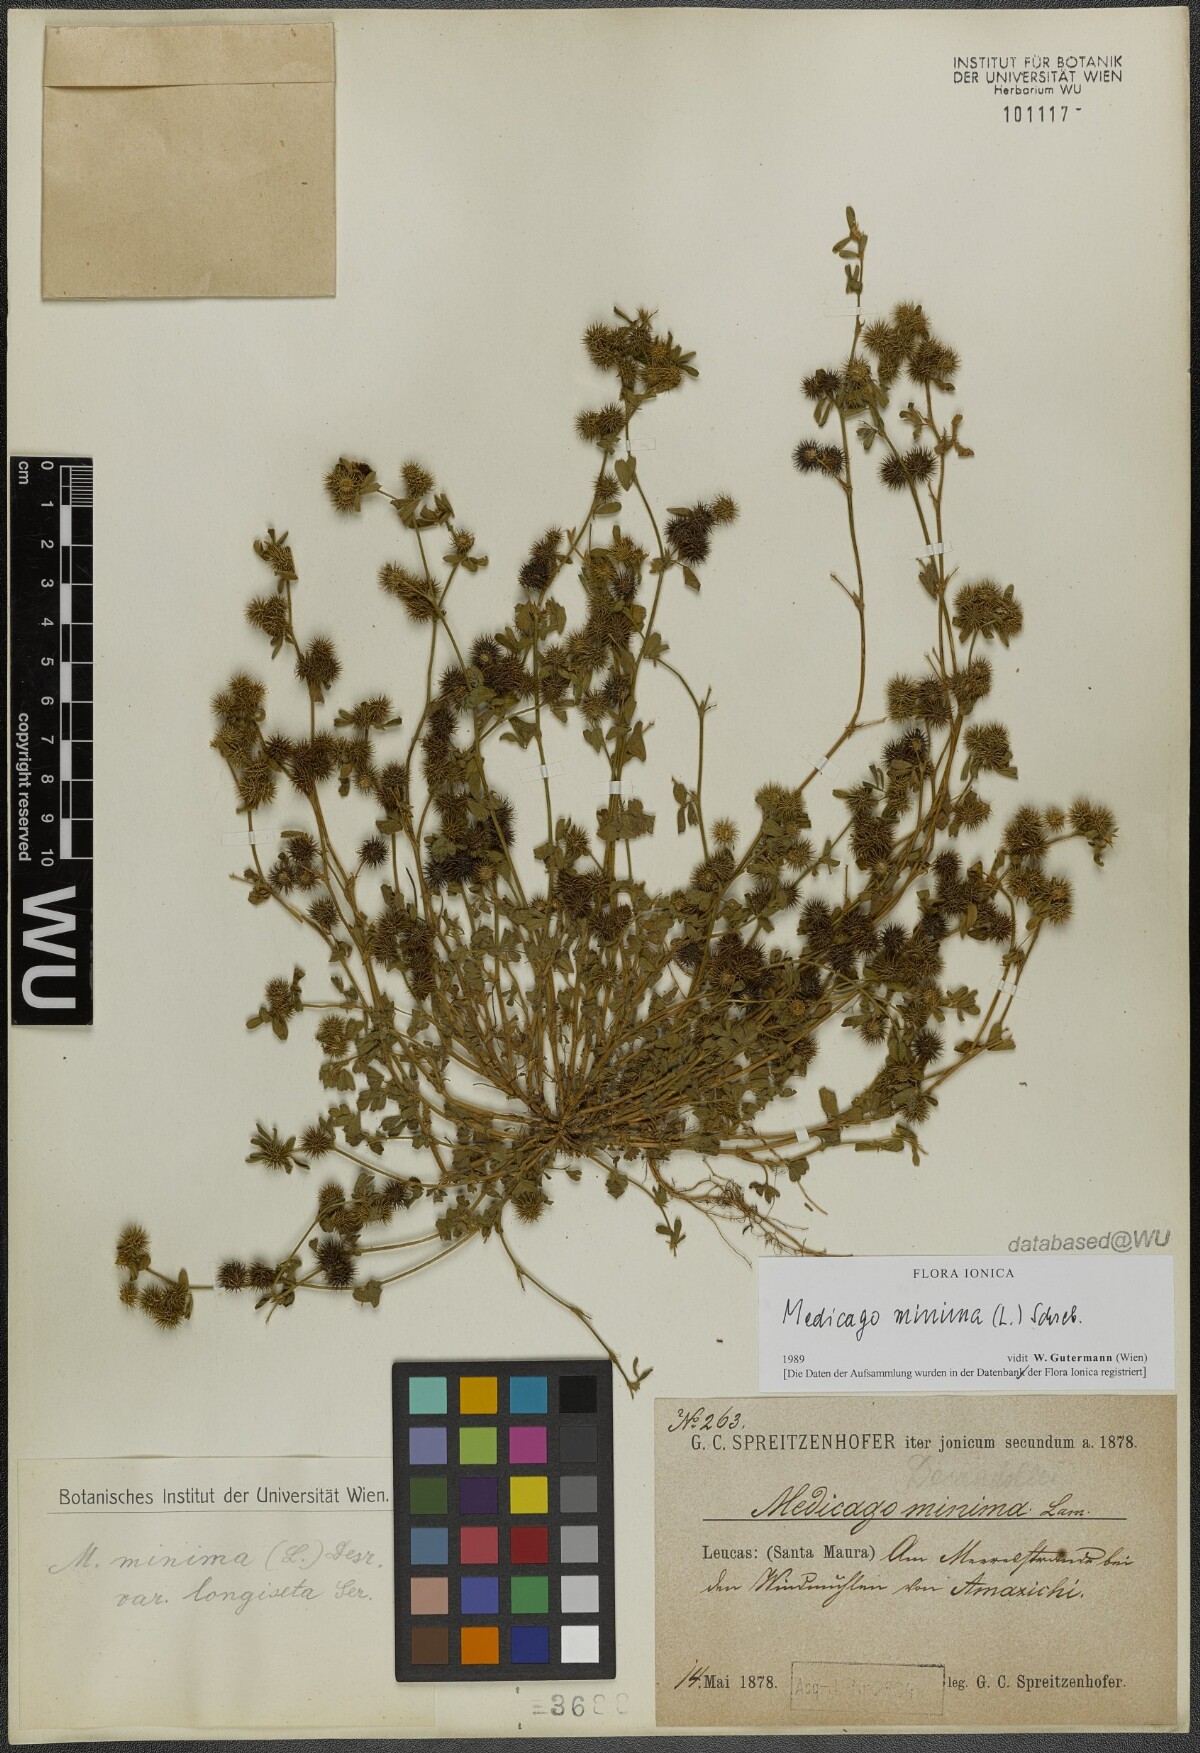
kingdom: Plantae
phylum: Tracheophyta
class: Magnoliopsida
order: Fabales
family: Fabaceae
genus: Medicago
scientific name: Medicago minima
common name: Little bur-clover
